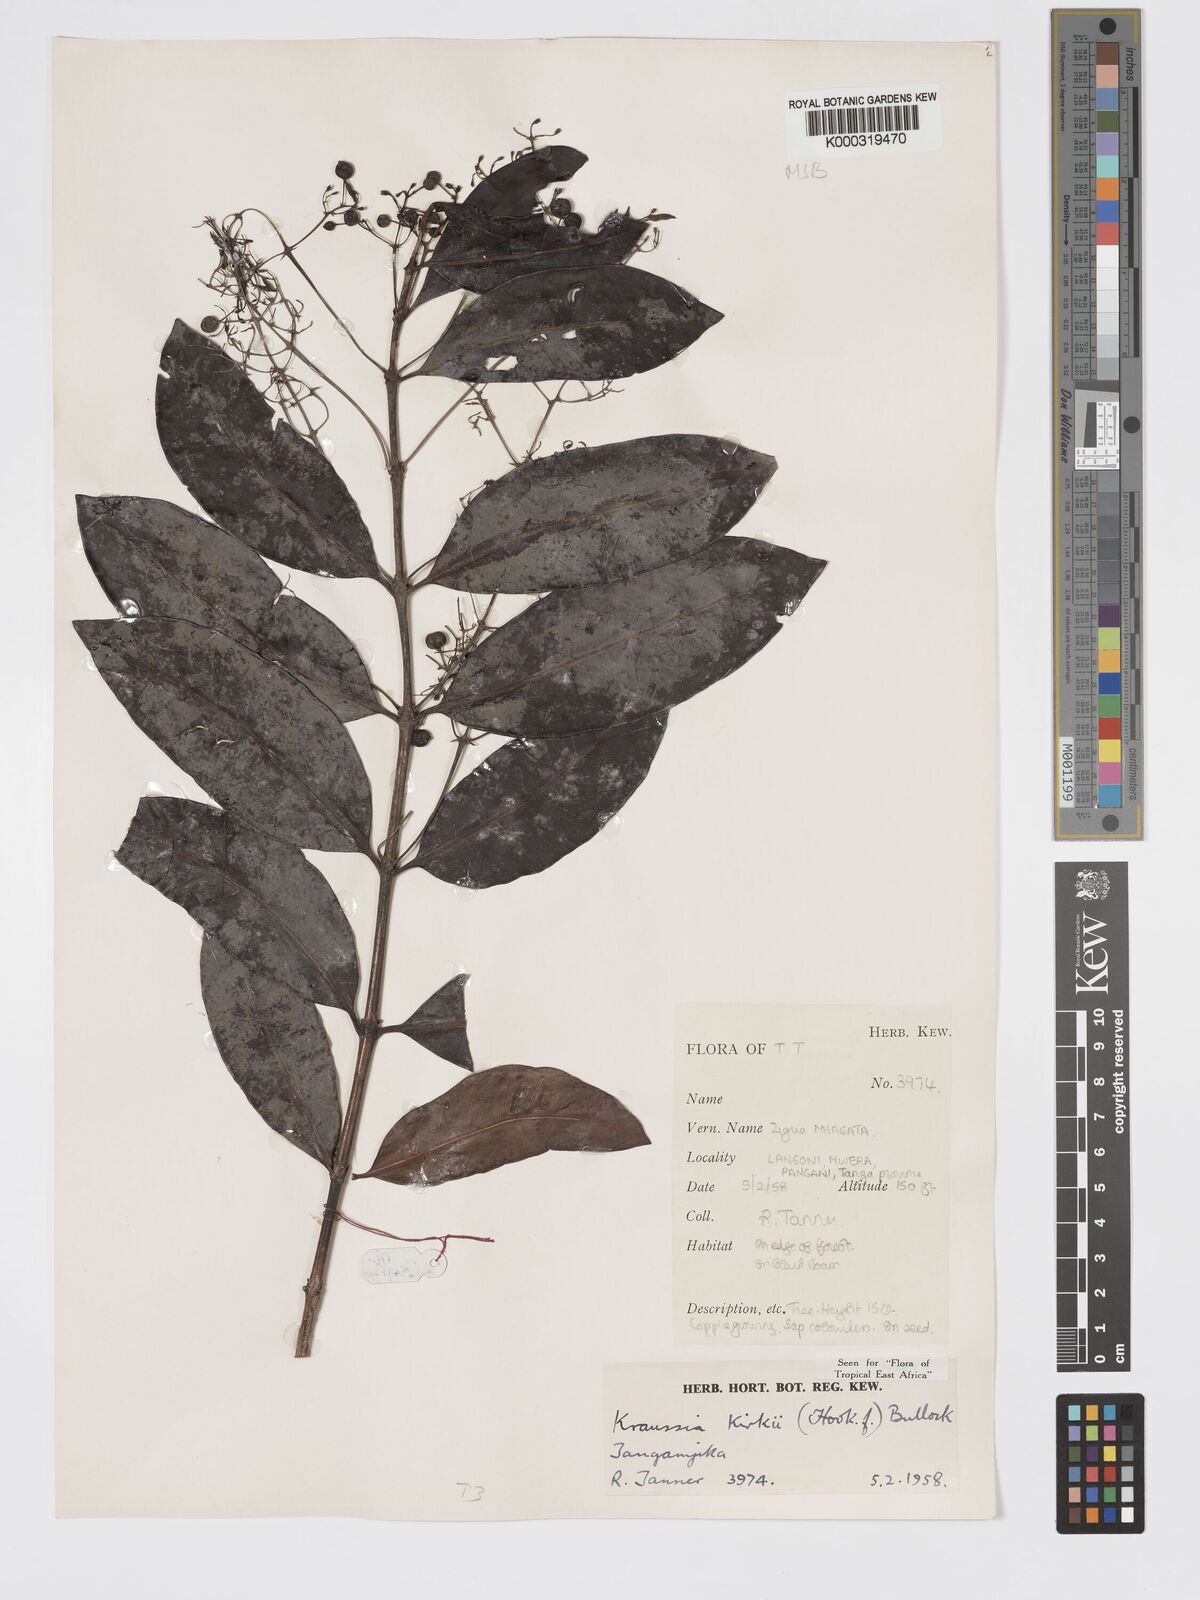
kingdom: Plantae
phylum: Tracheophyta
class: Magnoliopsida
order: Gentianales
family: Rubiaceae
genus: Kraussia
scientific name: Kraussia kirkii
